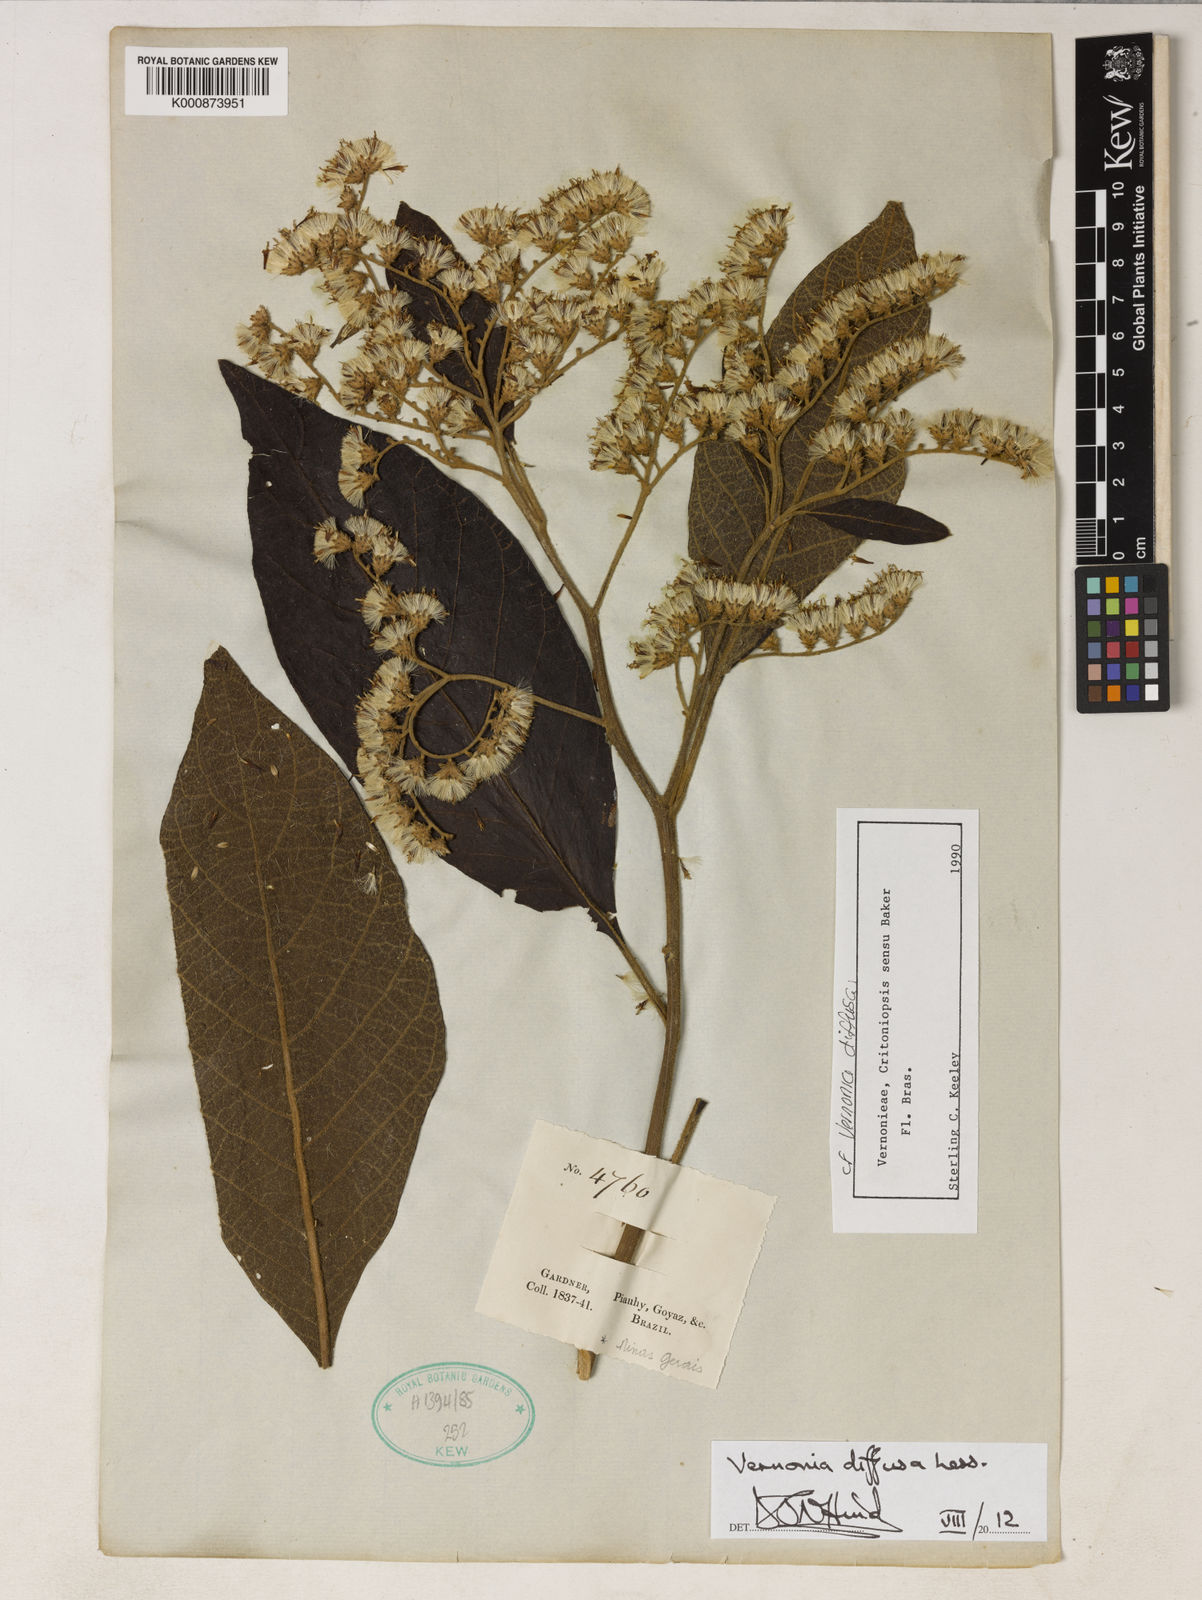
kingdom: Plantae
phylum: Tracheophyta
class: Magnoliopsida
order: Asterales
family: Asteraceae
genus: Vernonanthura
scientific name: Vernonanthura divaricata
